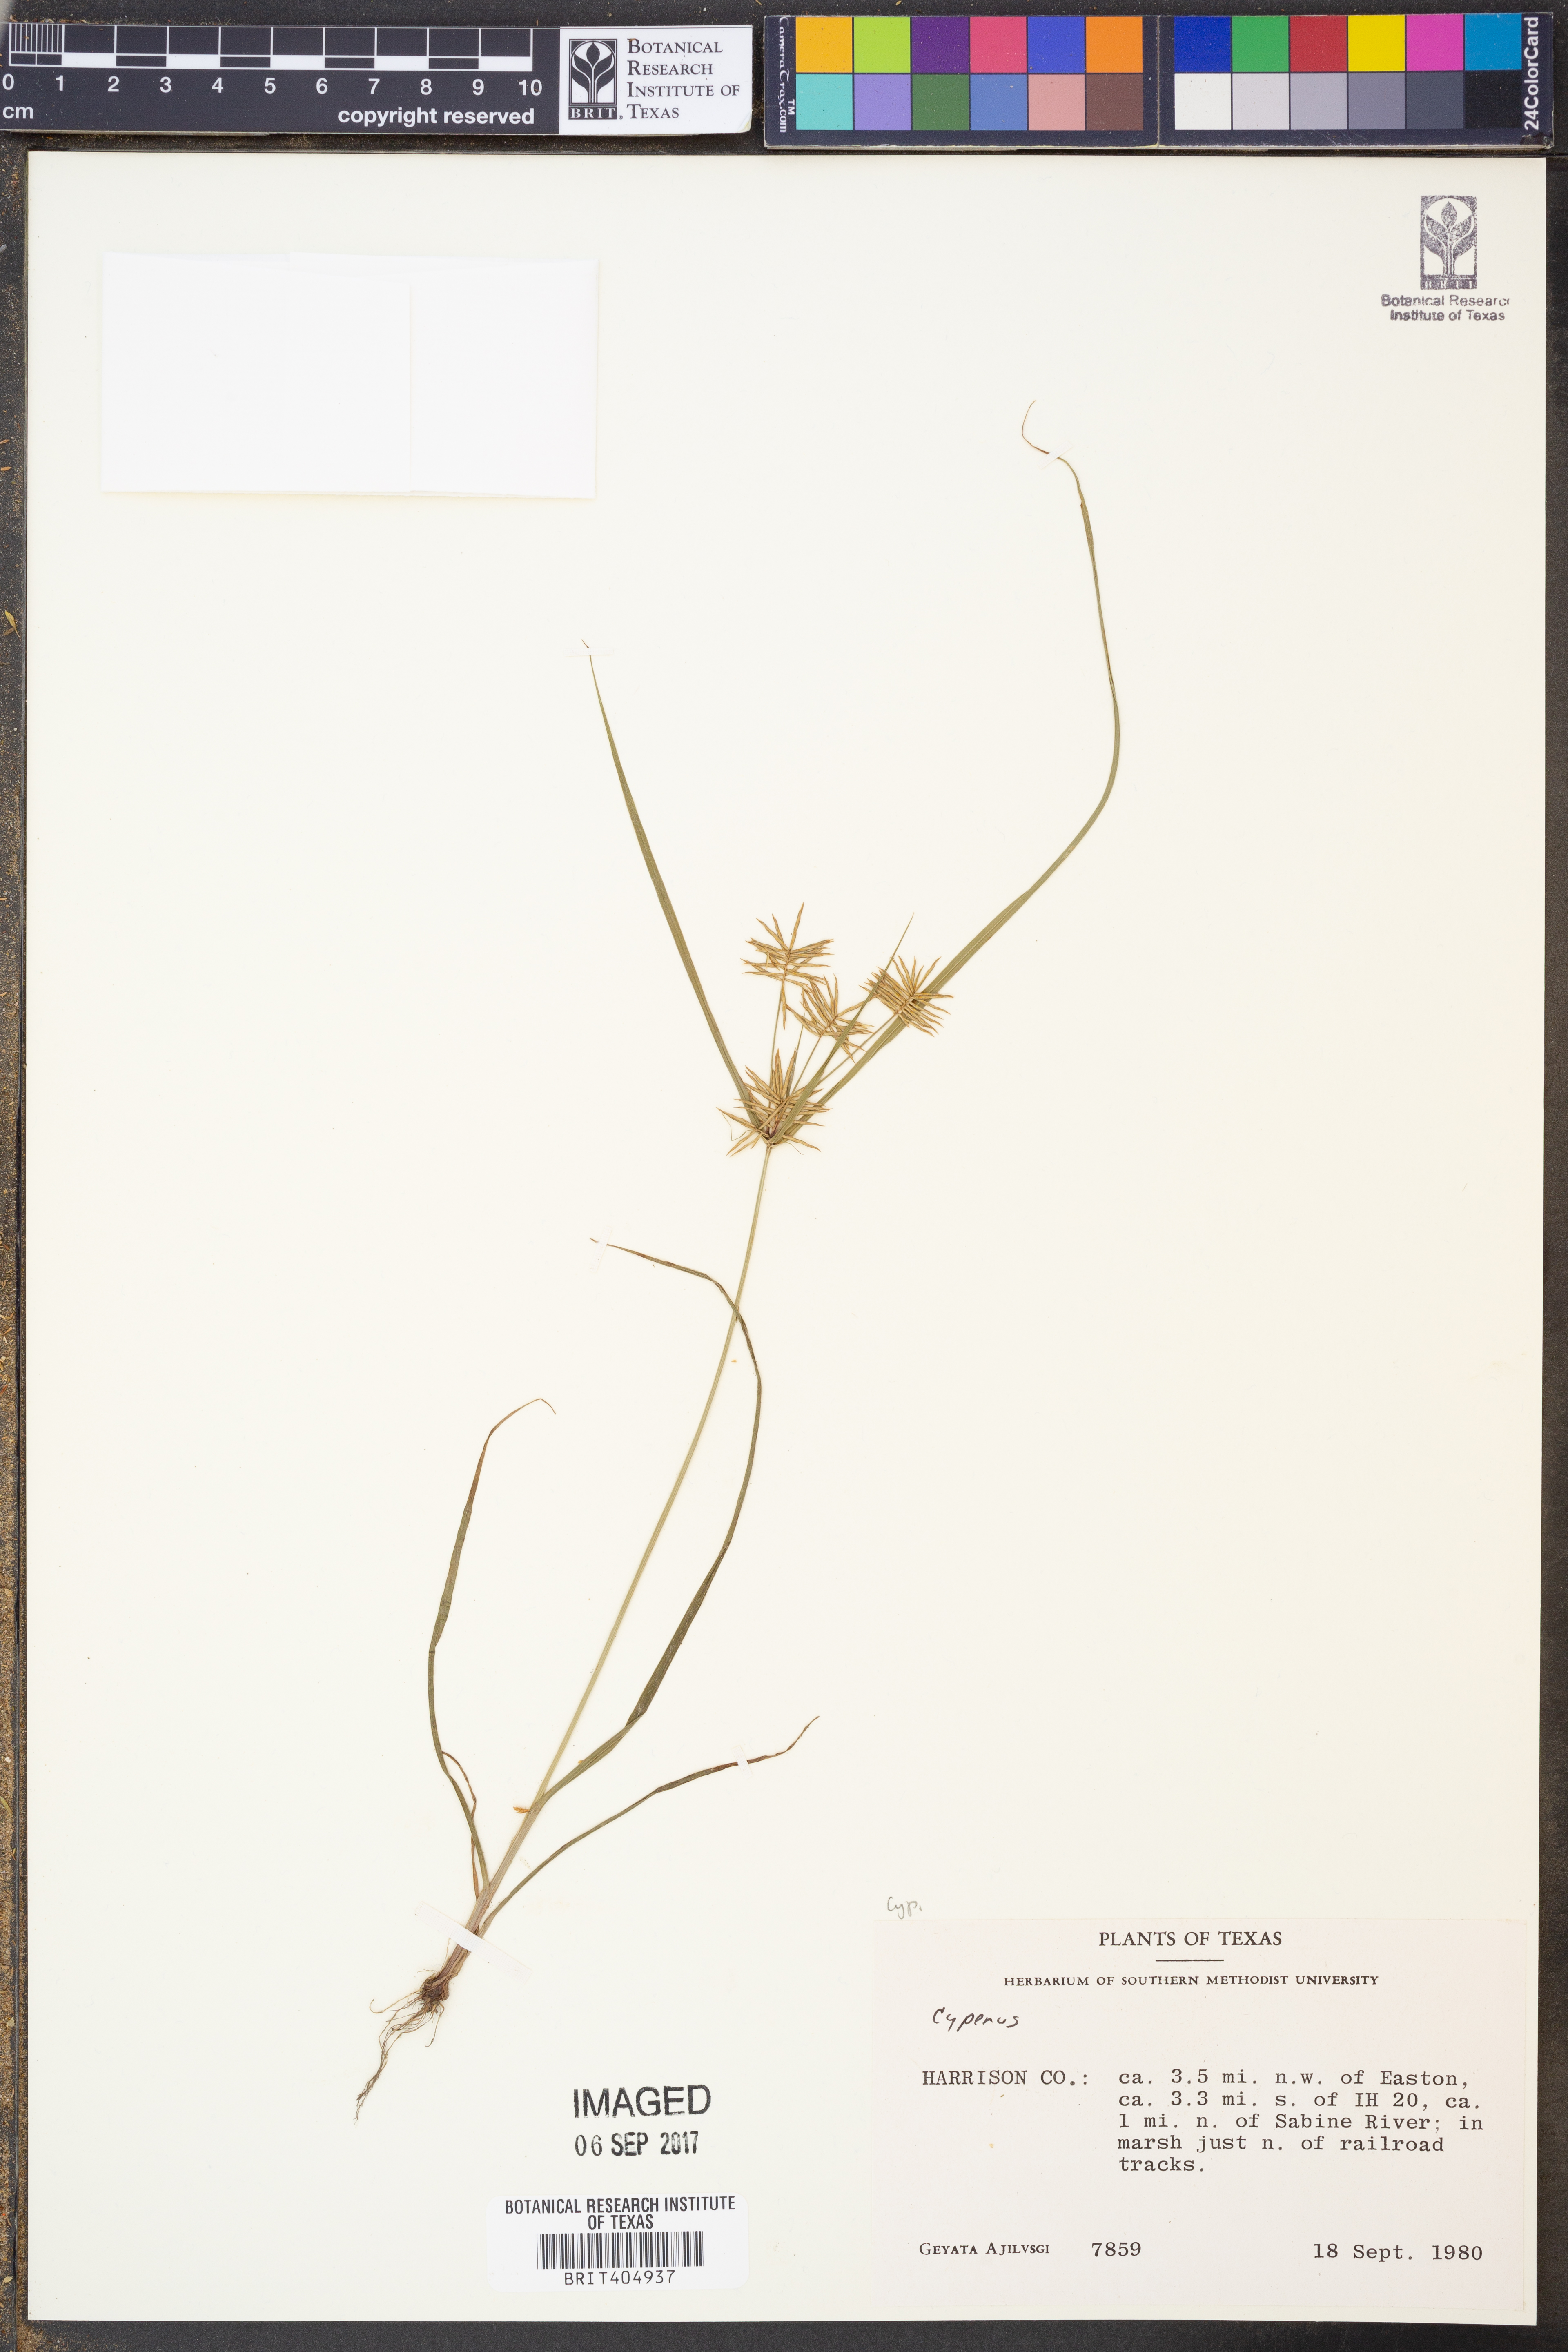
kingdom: Plantae
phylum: Tracheophyta
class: Liliopsida
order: Poales
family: Cyperaceae
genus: Cyperus
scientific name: Cyperus
